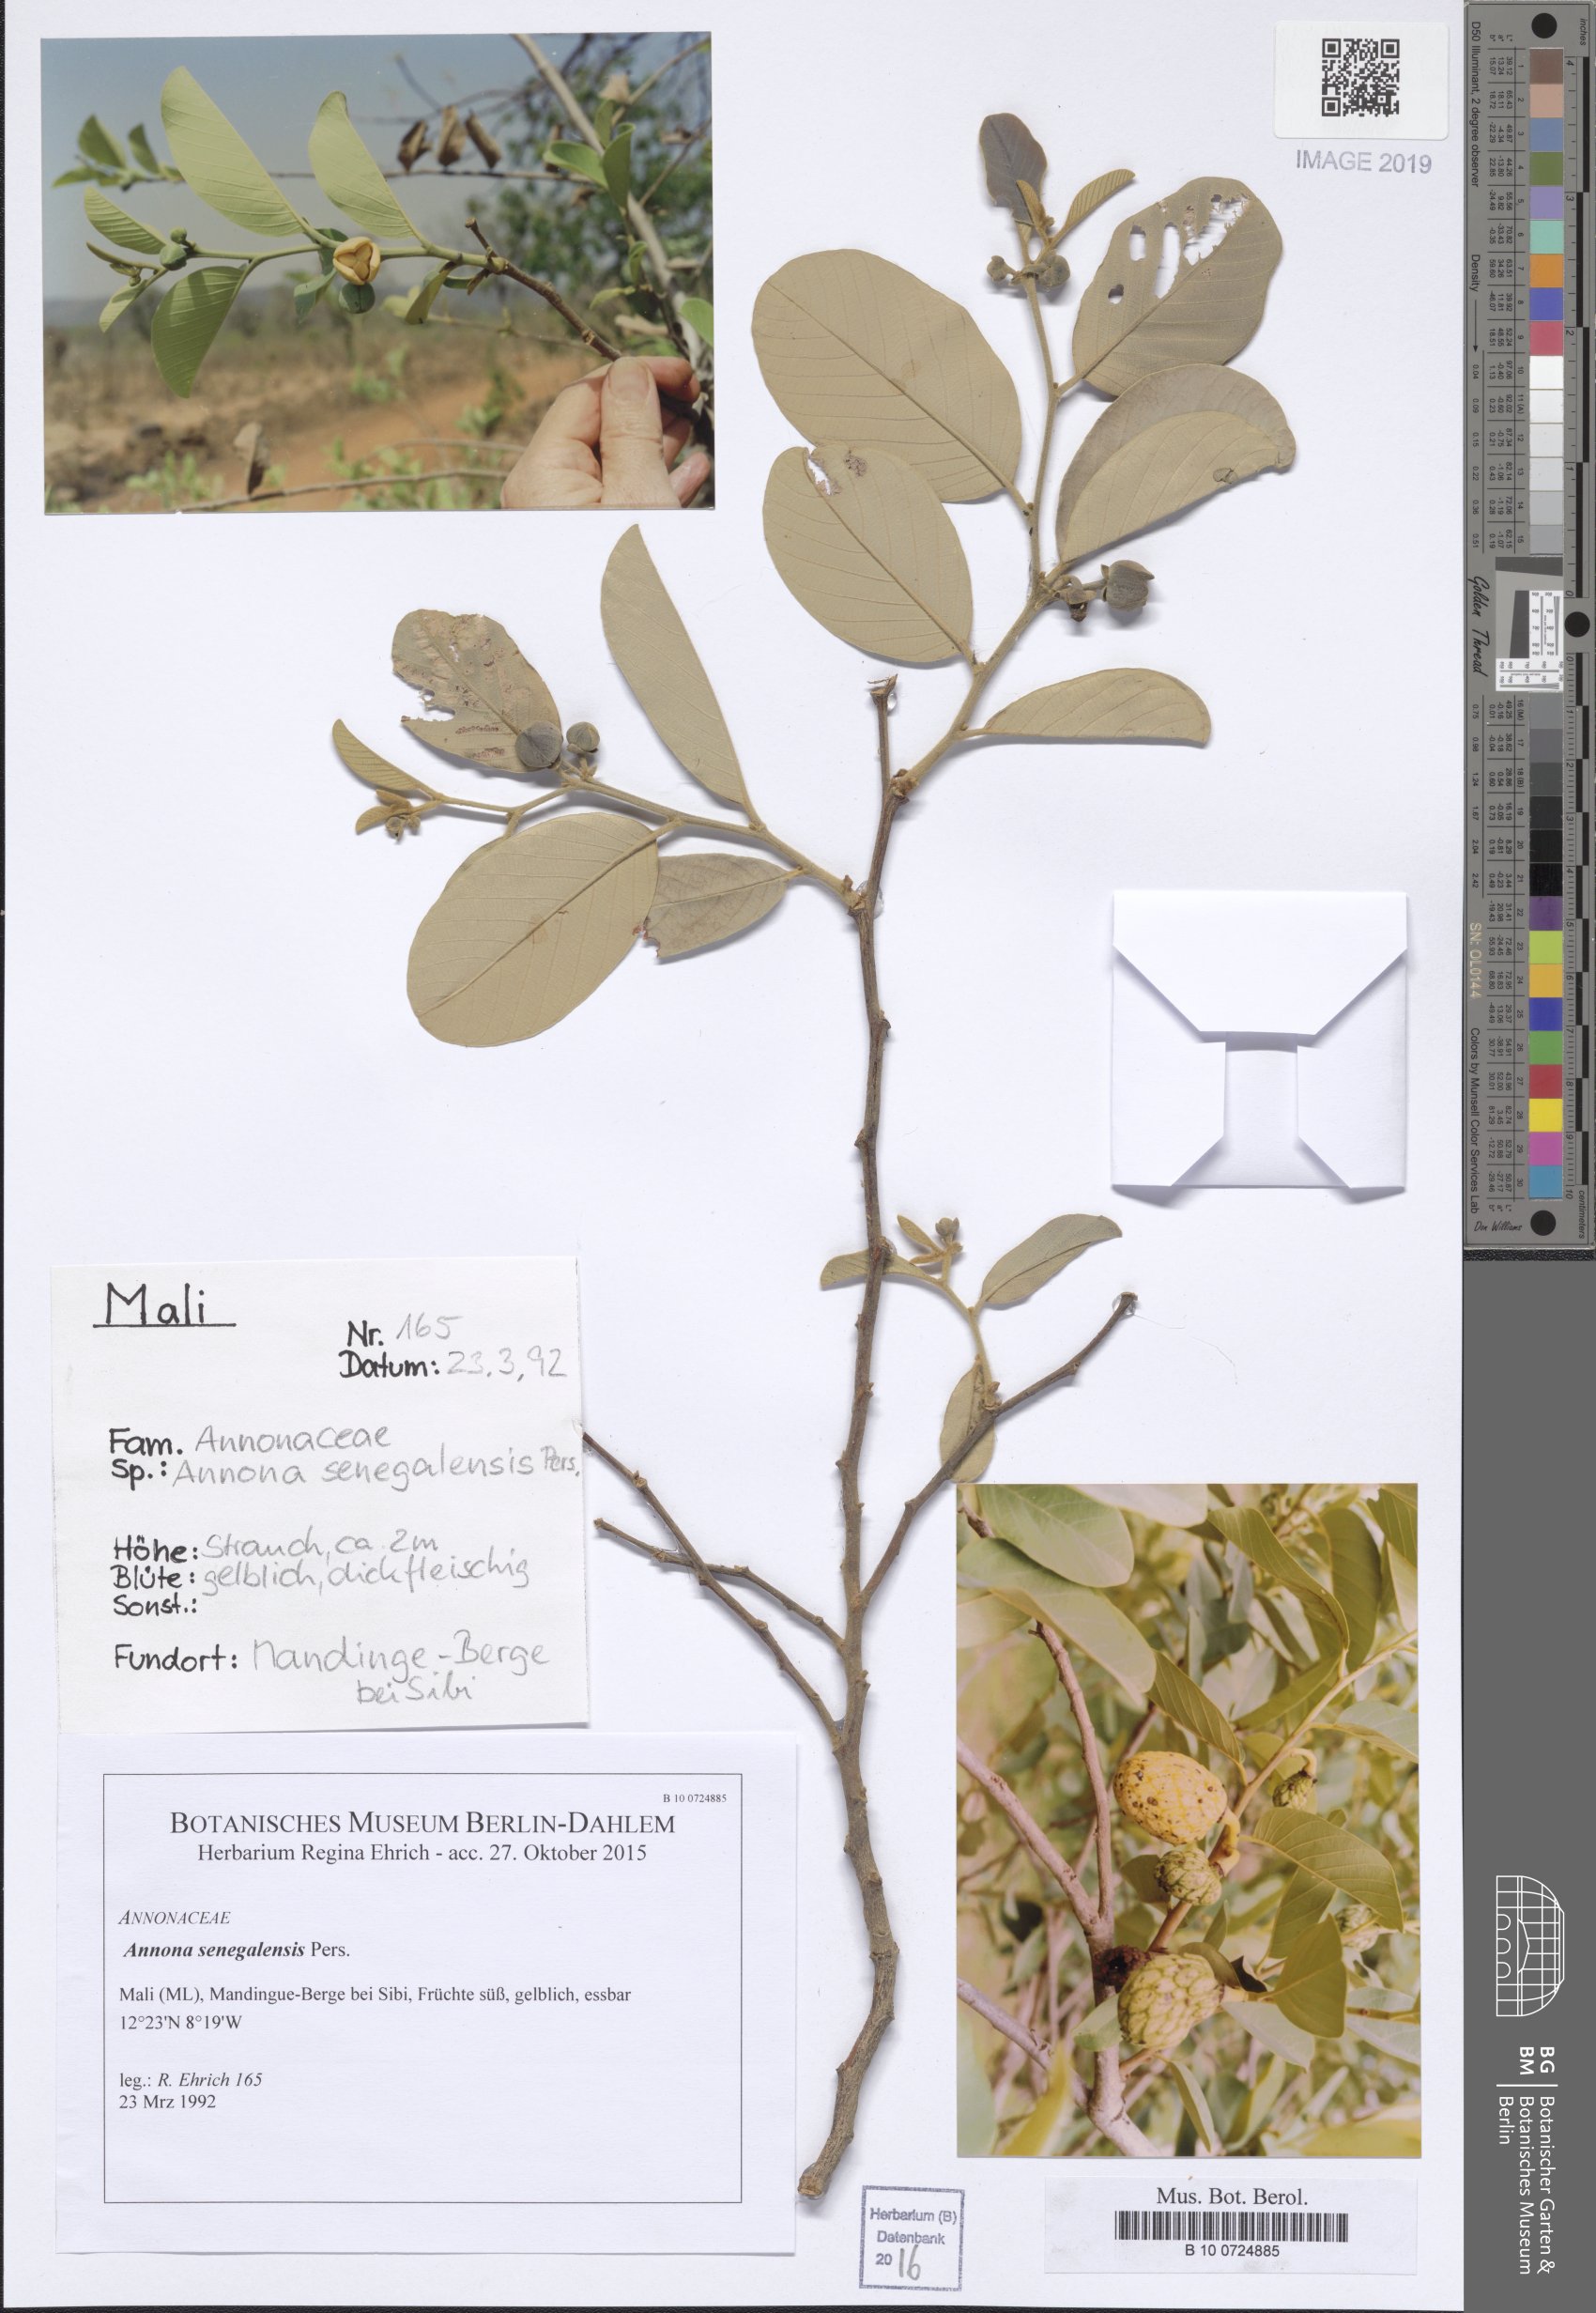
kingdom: Plantae
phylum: Tracheophyta
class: Magnoliopsida
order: Magnoliales
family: Annonaceae
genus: Annona
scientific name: Annona senegalensis
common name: Wild custard-apple
